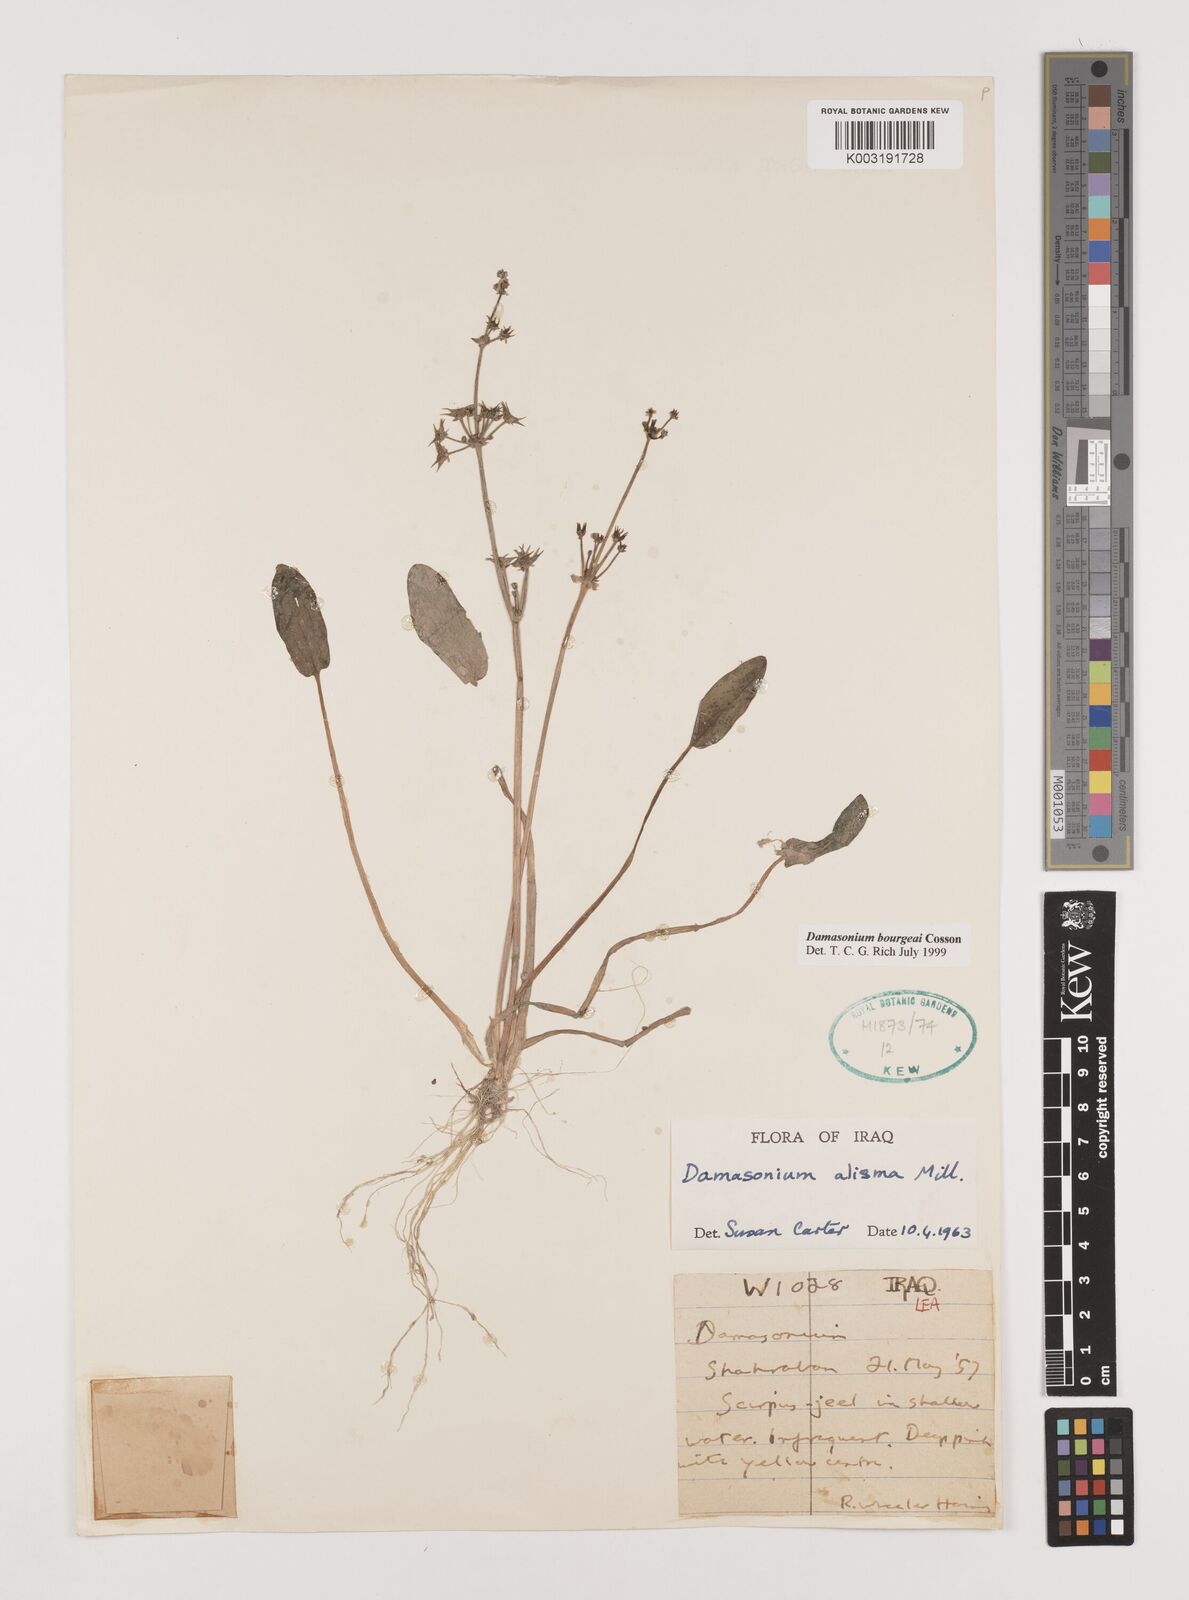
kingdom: Plantae
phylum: Tracheophyta
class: Liliopsida
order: Alismatales
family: Alismataceae
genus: Damasonium
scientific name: Damasonium alisma
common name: Starfruit
